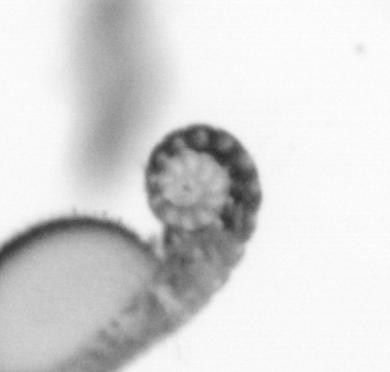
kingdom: Animalia
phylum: Annelida
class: Polychaeta
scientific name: Polychaeta
